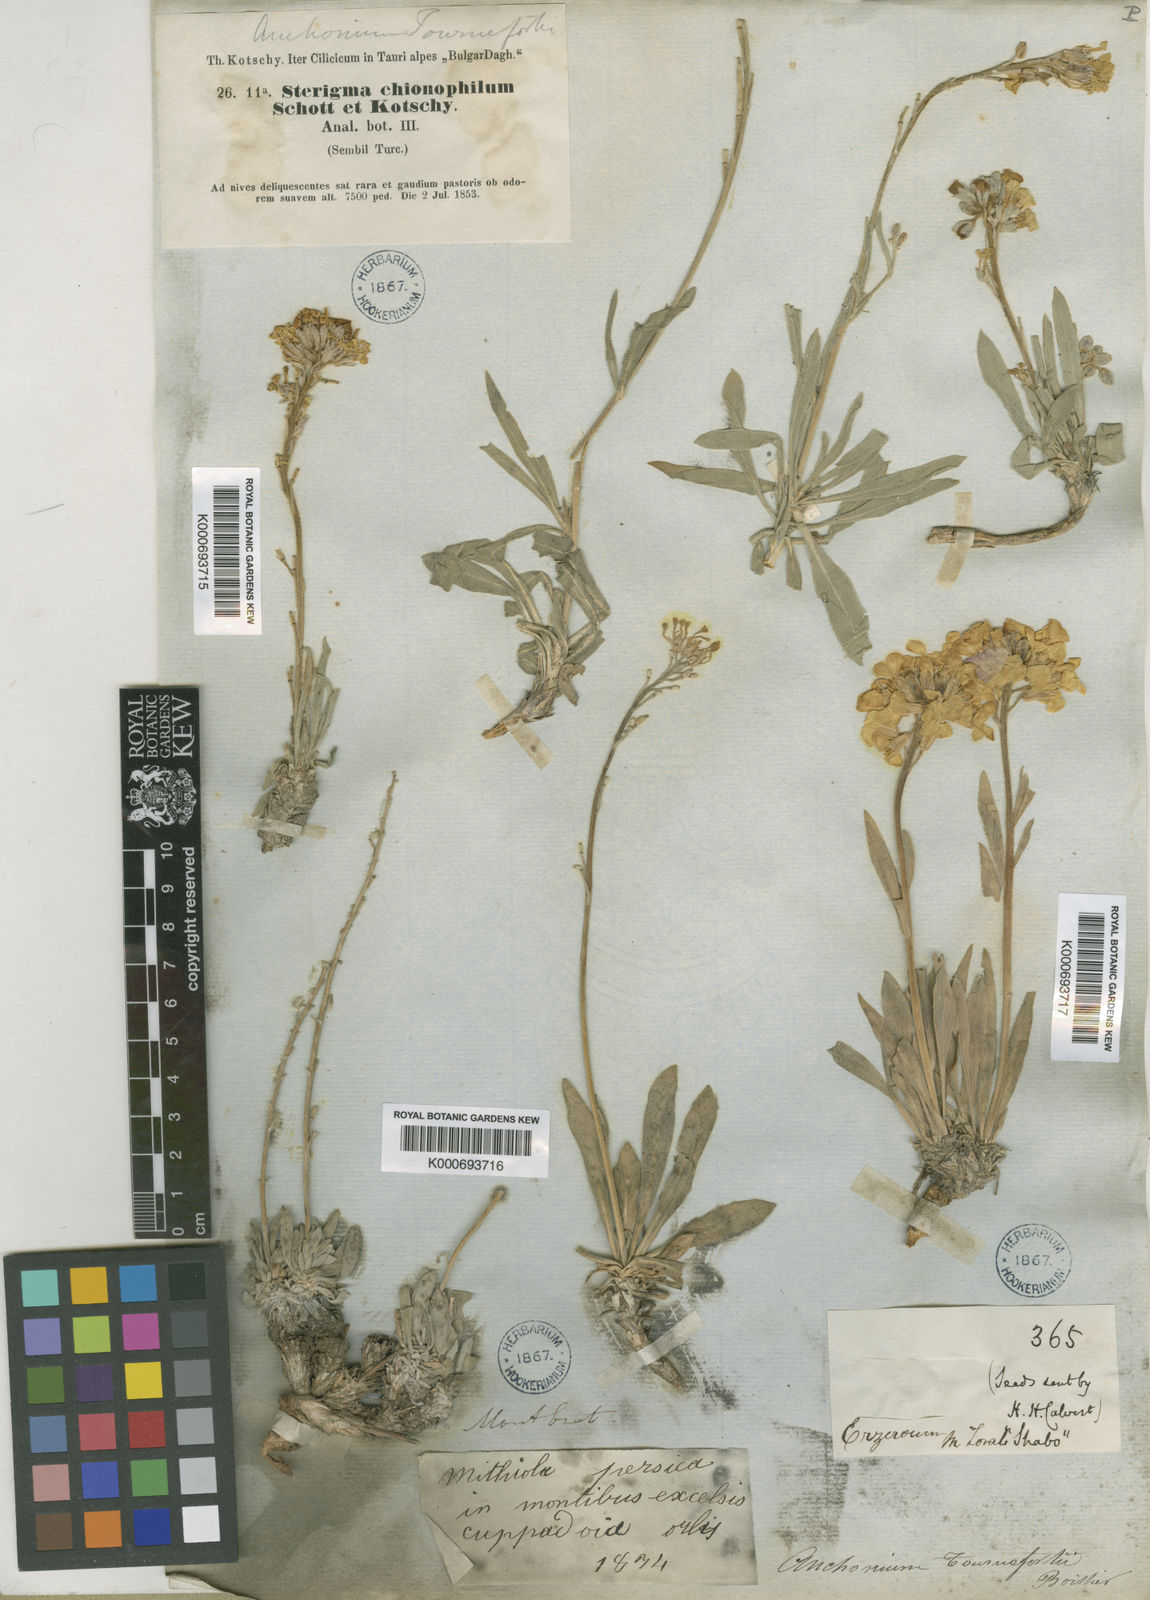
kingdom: Plantae
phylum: Tracheophyta
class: Magnoliopsida
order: Brassicales
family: Brassicaceae
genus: Anchonium
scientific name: Anchonium elichrysifolium
